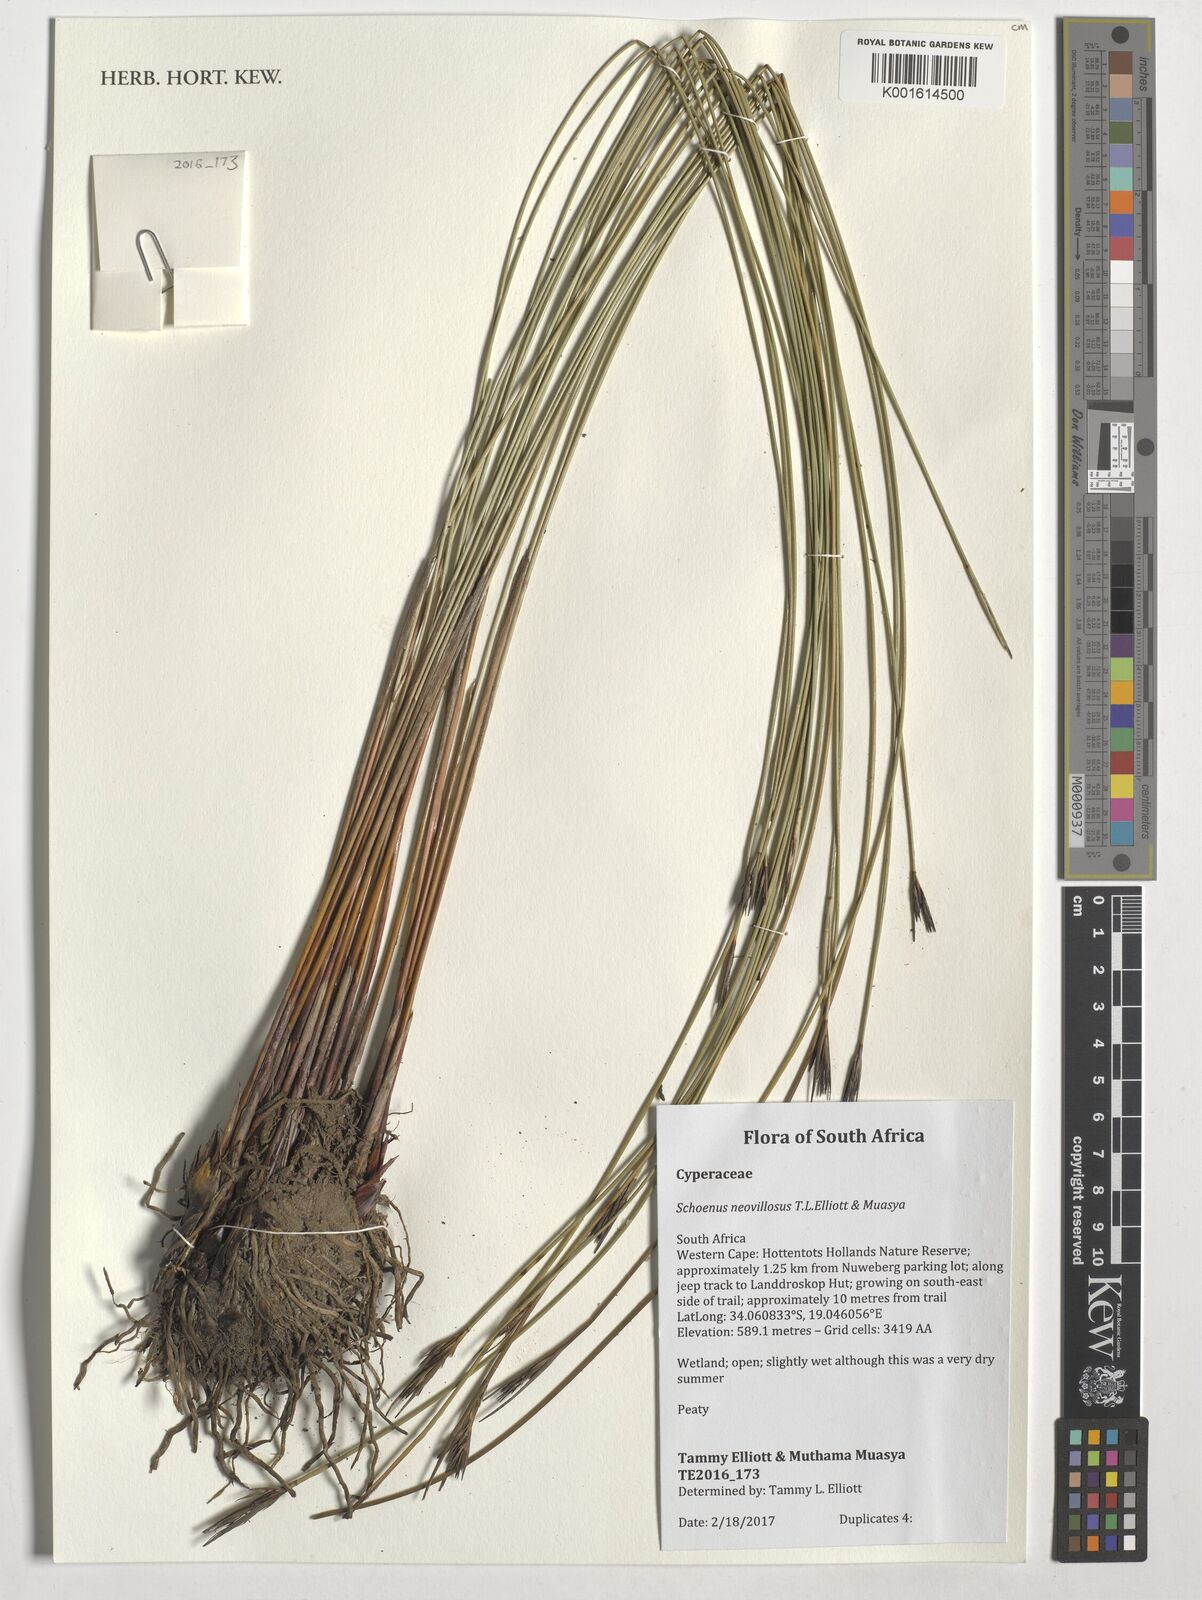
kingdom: Plantae
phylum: Tracheophyta
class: Liliopsida
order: Poales
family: Cyperaceae
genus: Schoenus
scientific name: Schoenus neovillosus
